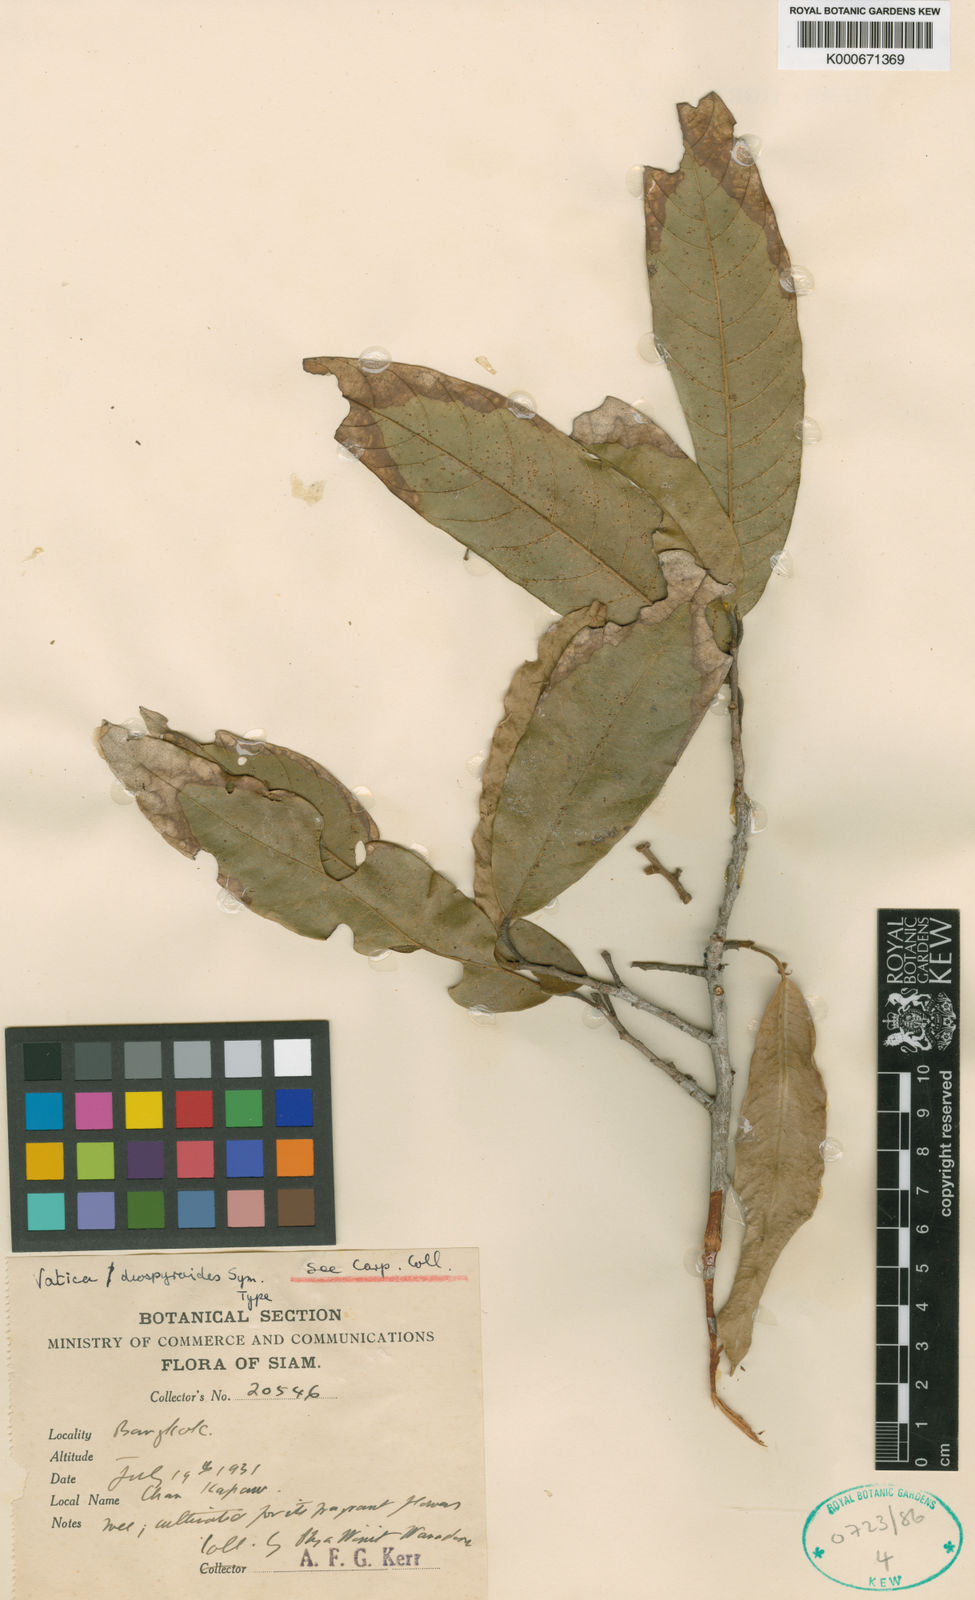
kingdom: Plantae
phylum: Tracheophyta
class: Magnoliopsida
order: Malvales
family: Dipterocarpaceae
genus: Vatica
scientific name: Vatica diospyroides
